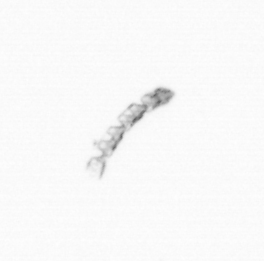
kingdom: Chromista
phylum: Ochrophyta
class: Bacillariophyceae
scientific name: Bacillariophyceae
